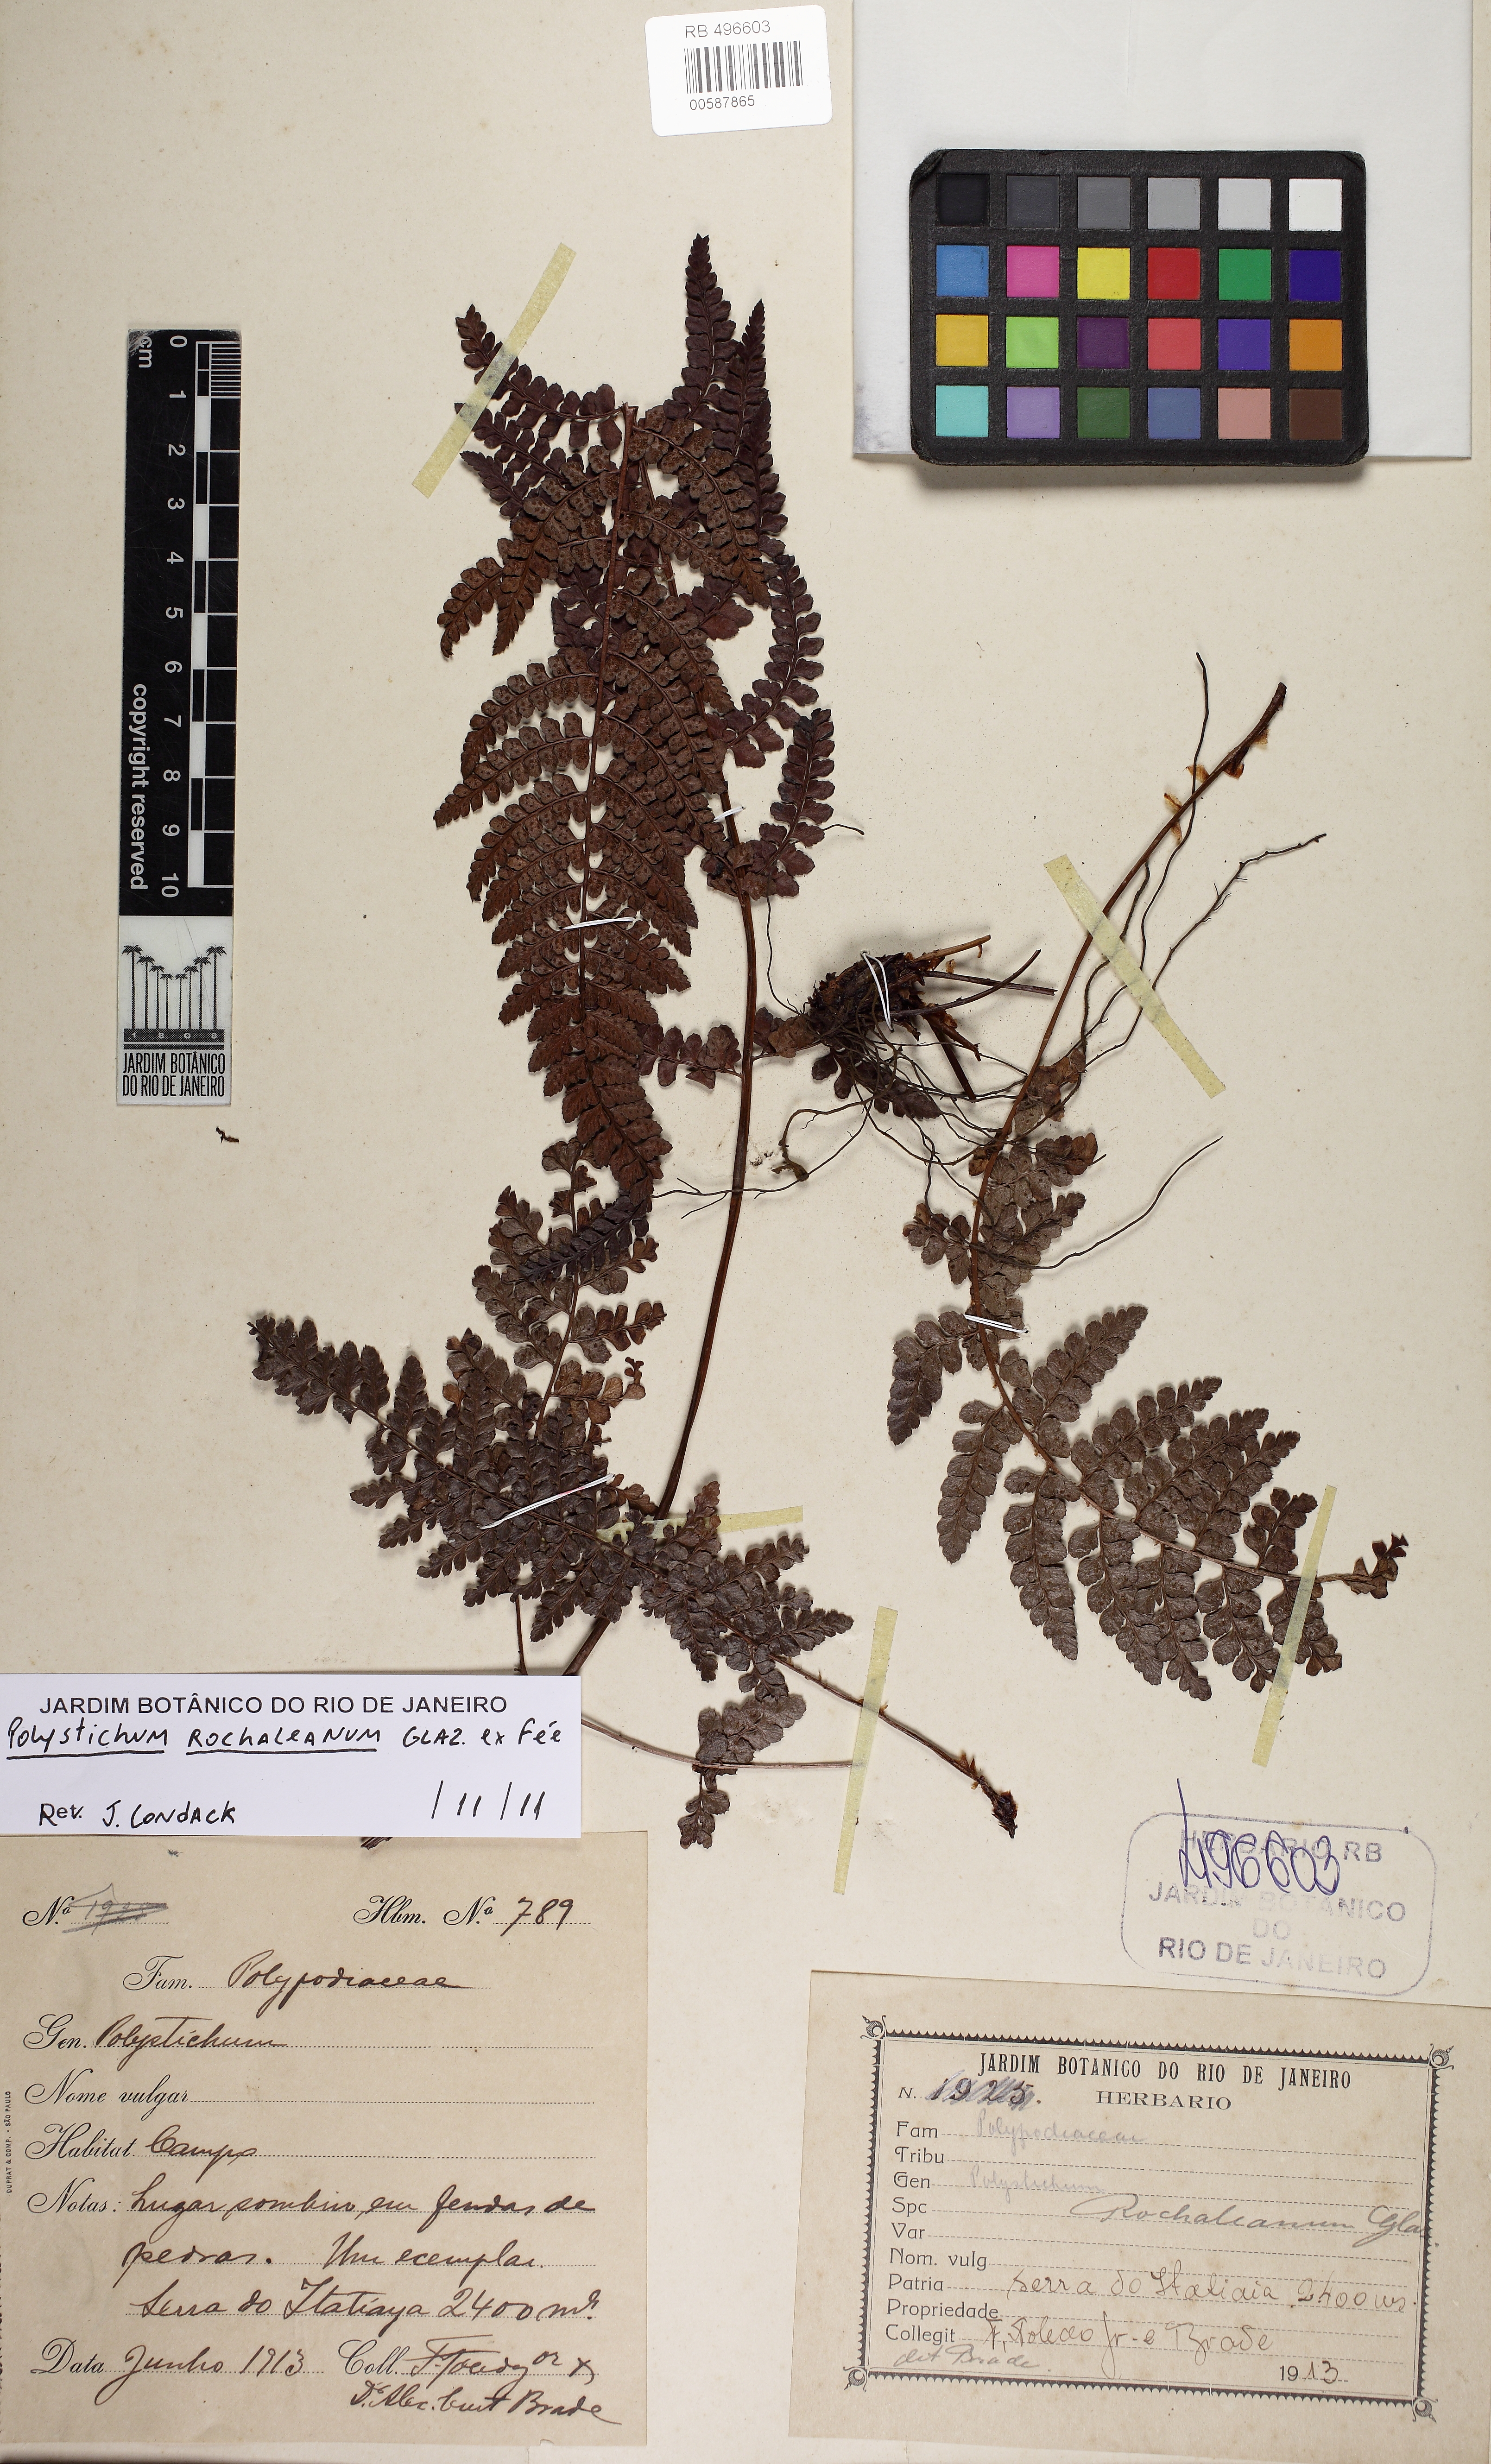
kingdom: Plantae
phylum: Tracheophyta
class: Polypodiopsida
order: Polypodiales
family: Dryopteridaceae
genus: Polystichum
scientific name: Polystichum rochaleanum
